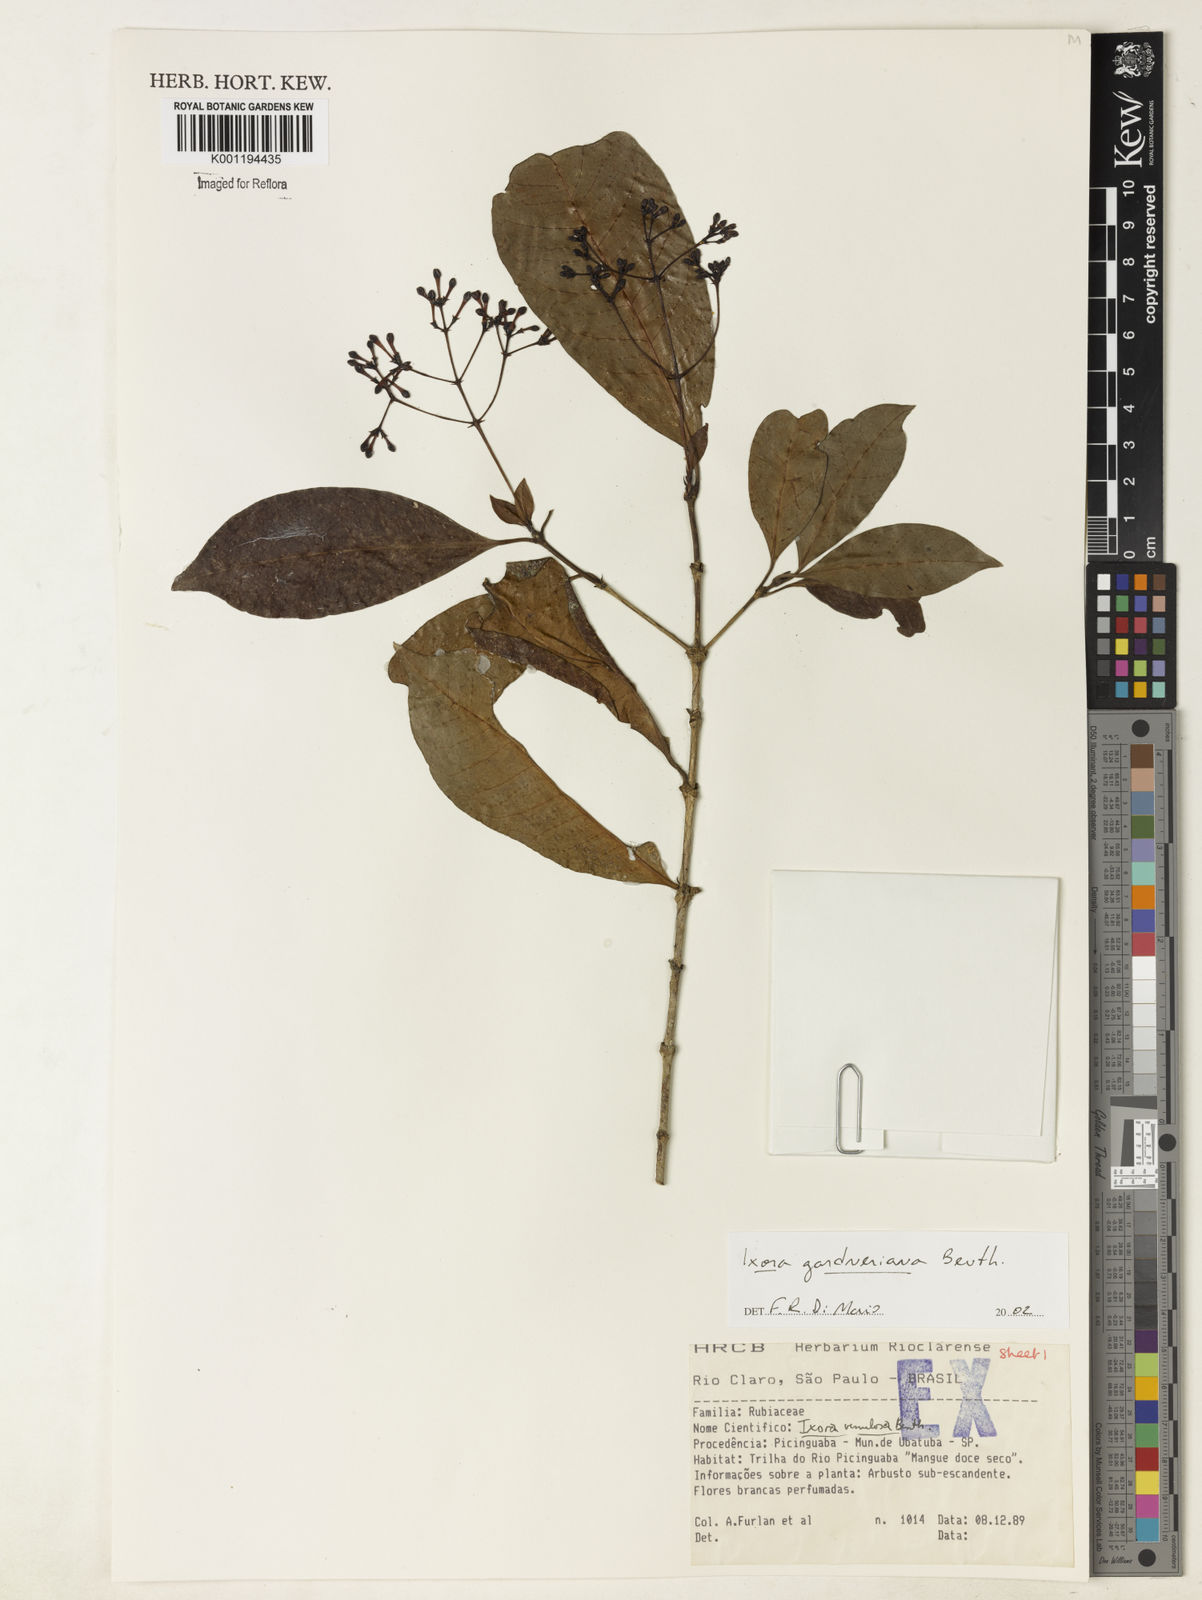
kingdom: Plantae
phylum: Tracheophyta
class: Magnoliopsida
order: Gentianales
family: Rubiaceae
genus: Ixora
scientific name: Ixora gardneriana
